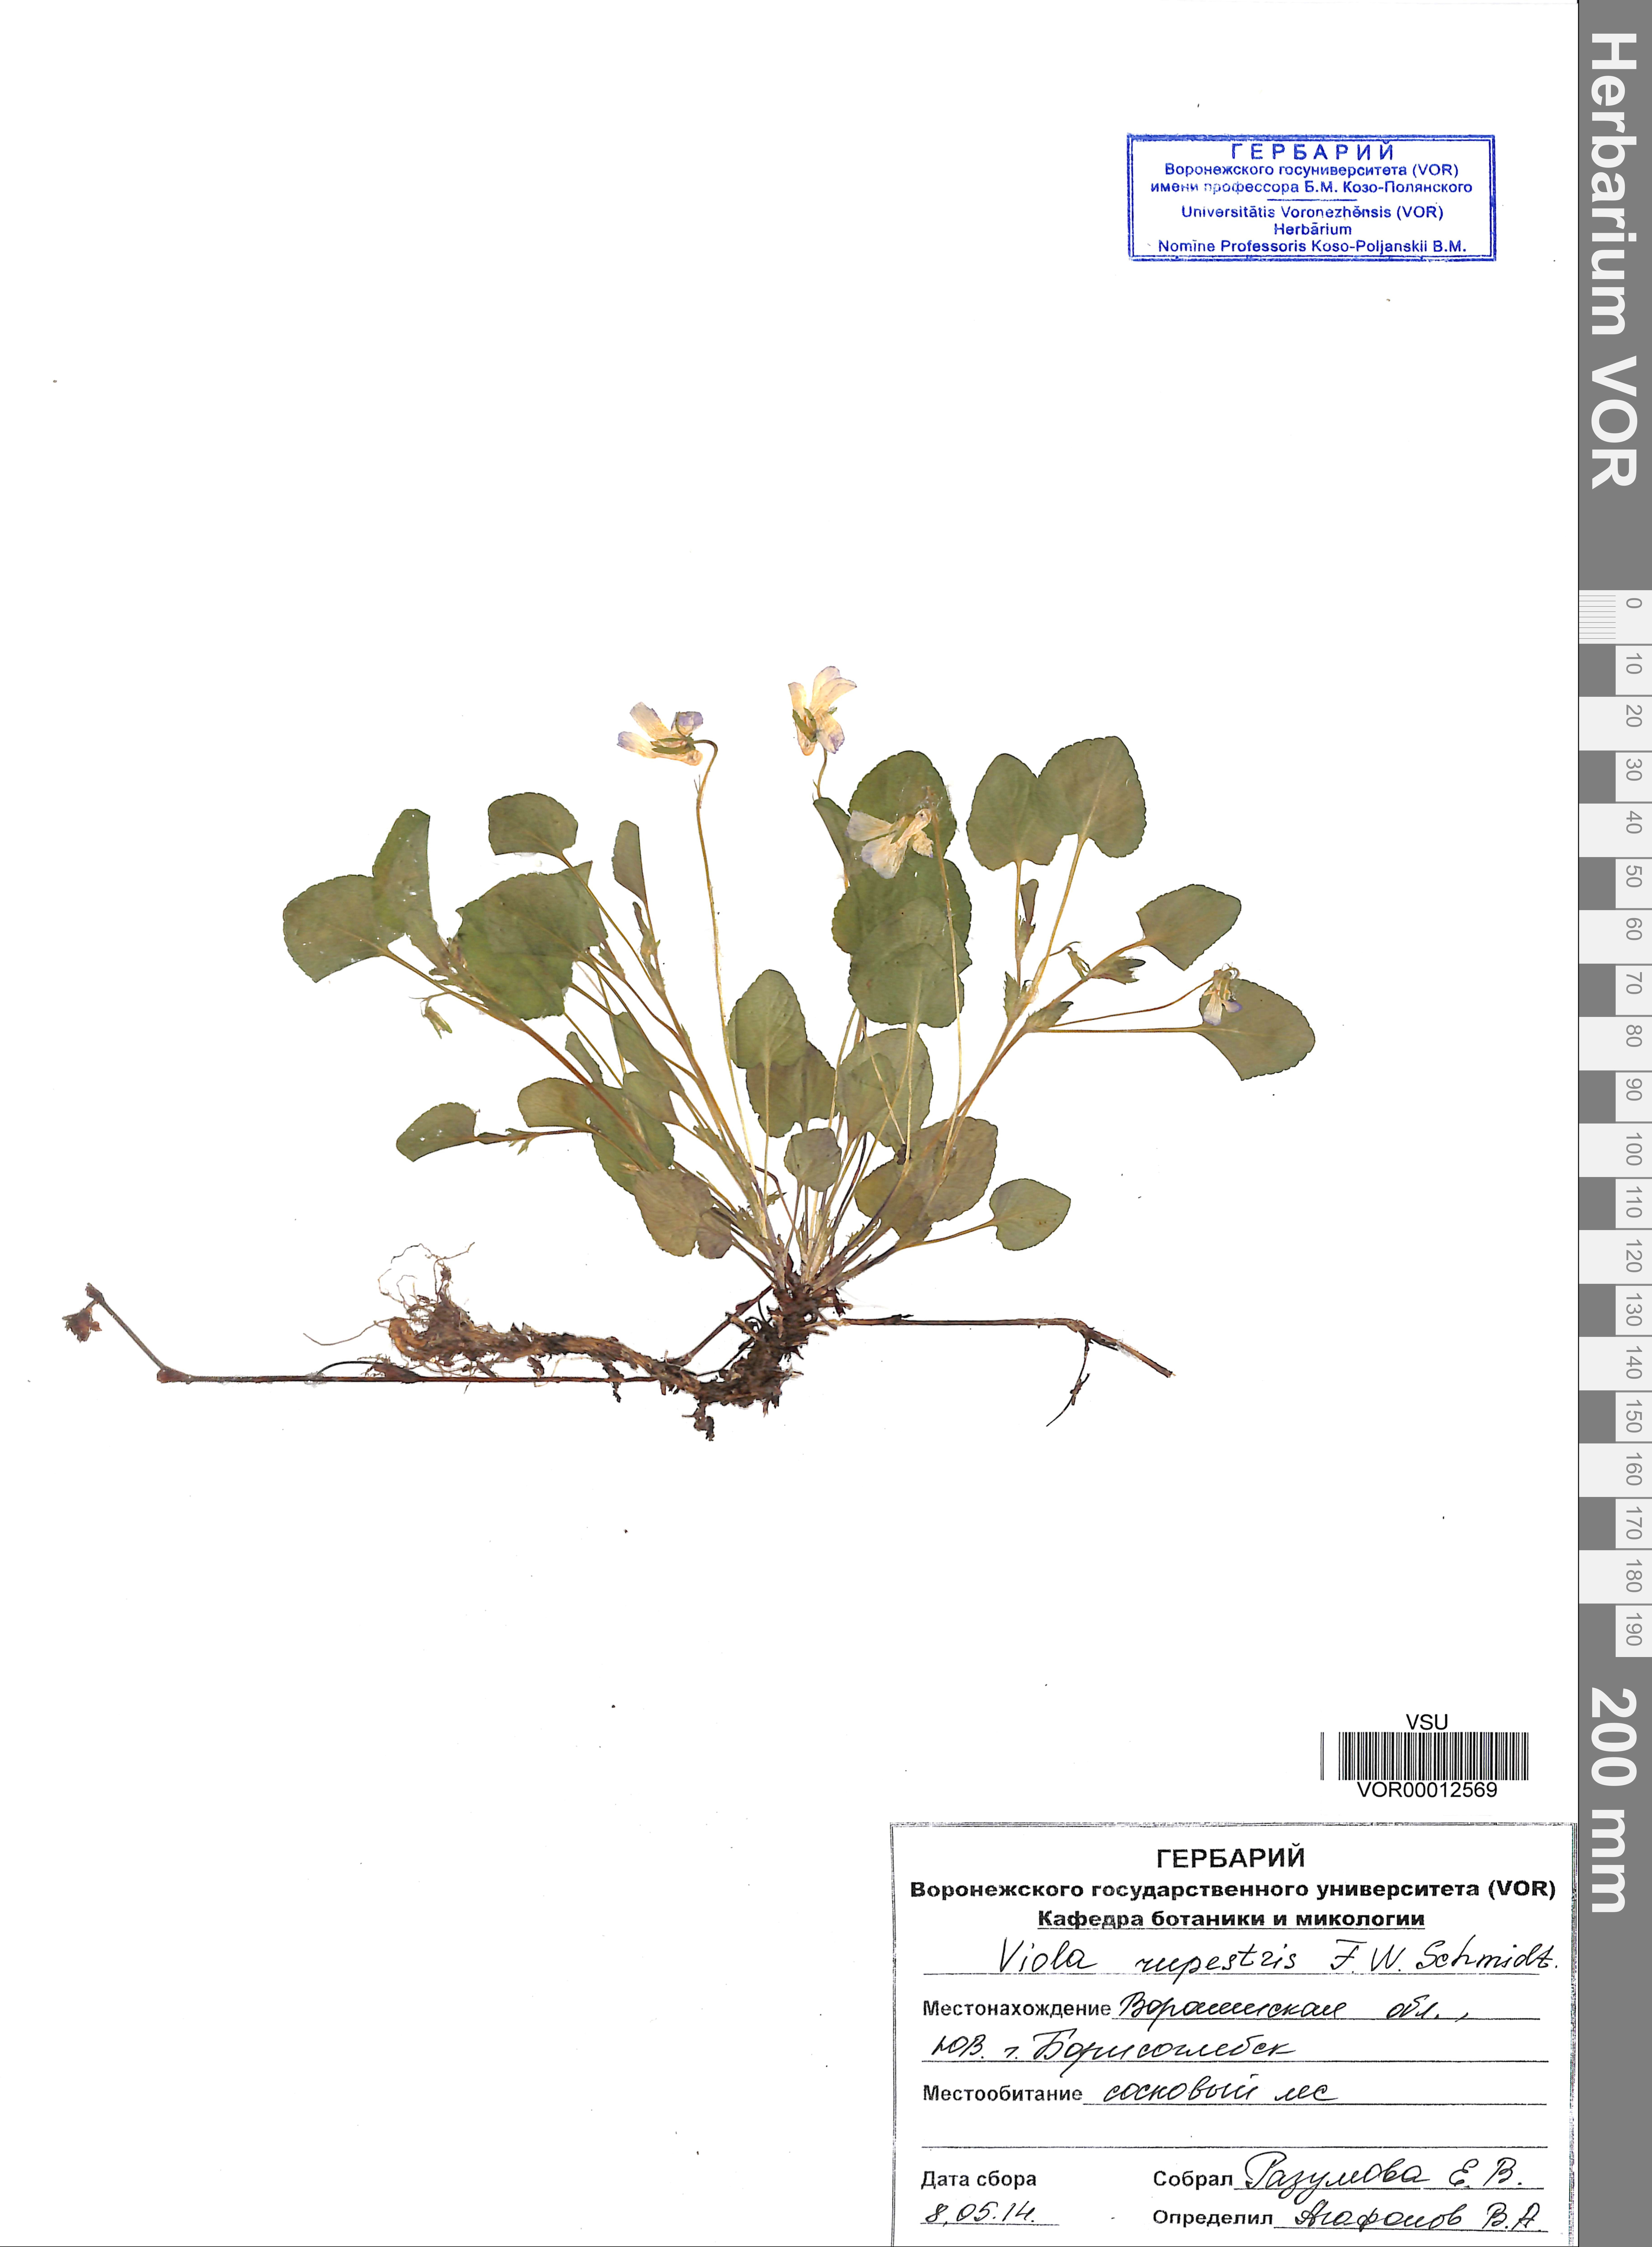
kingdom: Plantae
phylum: Tracheophyta
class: Magnoliopsida
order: Malpighiales
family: Violaceae
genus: Viola
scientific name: Viola rupestris
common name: Teesdale violet
